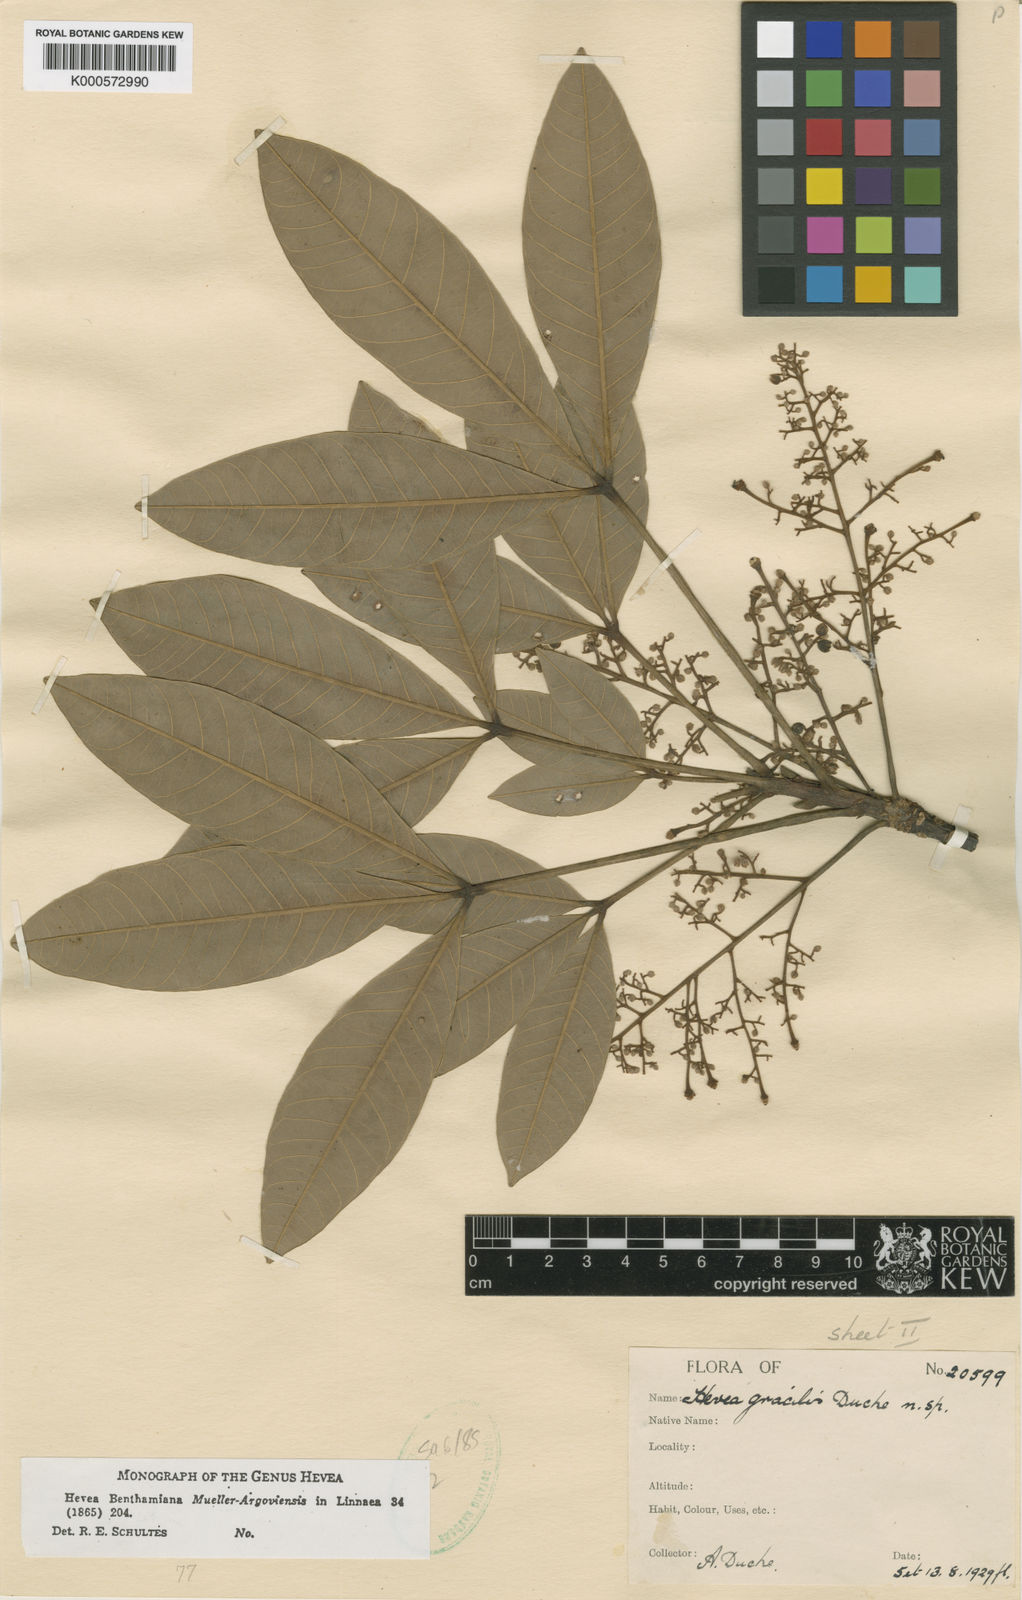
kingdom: Plantae
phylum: Tracheophyta
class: Magnoliopsida
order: Malpighiales
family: Euphorbiaceae
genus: Hevea
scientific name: Hevea gracilis
